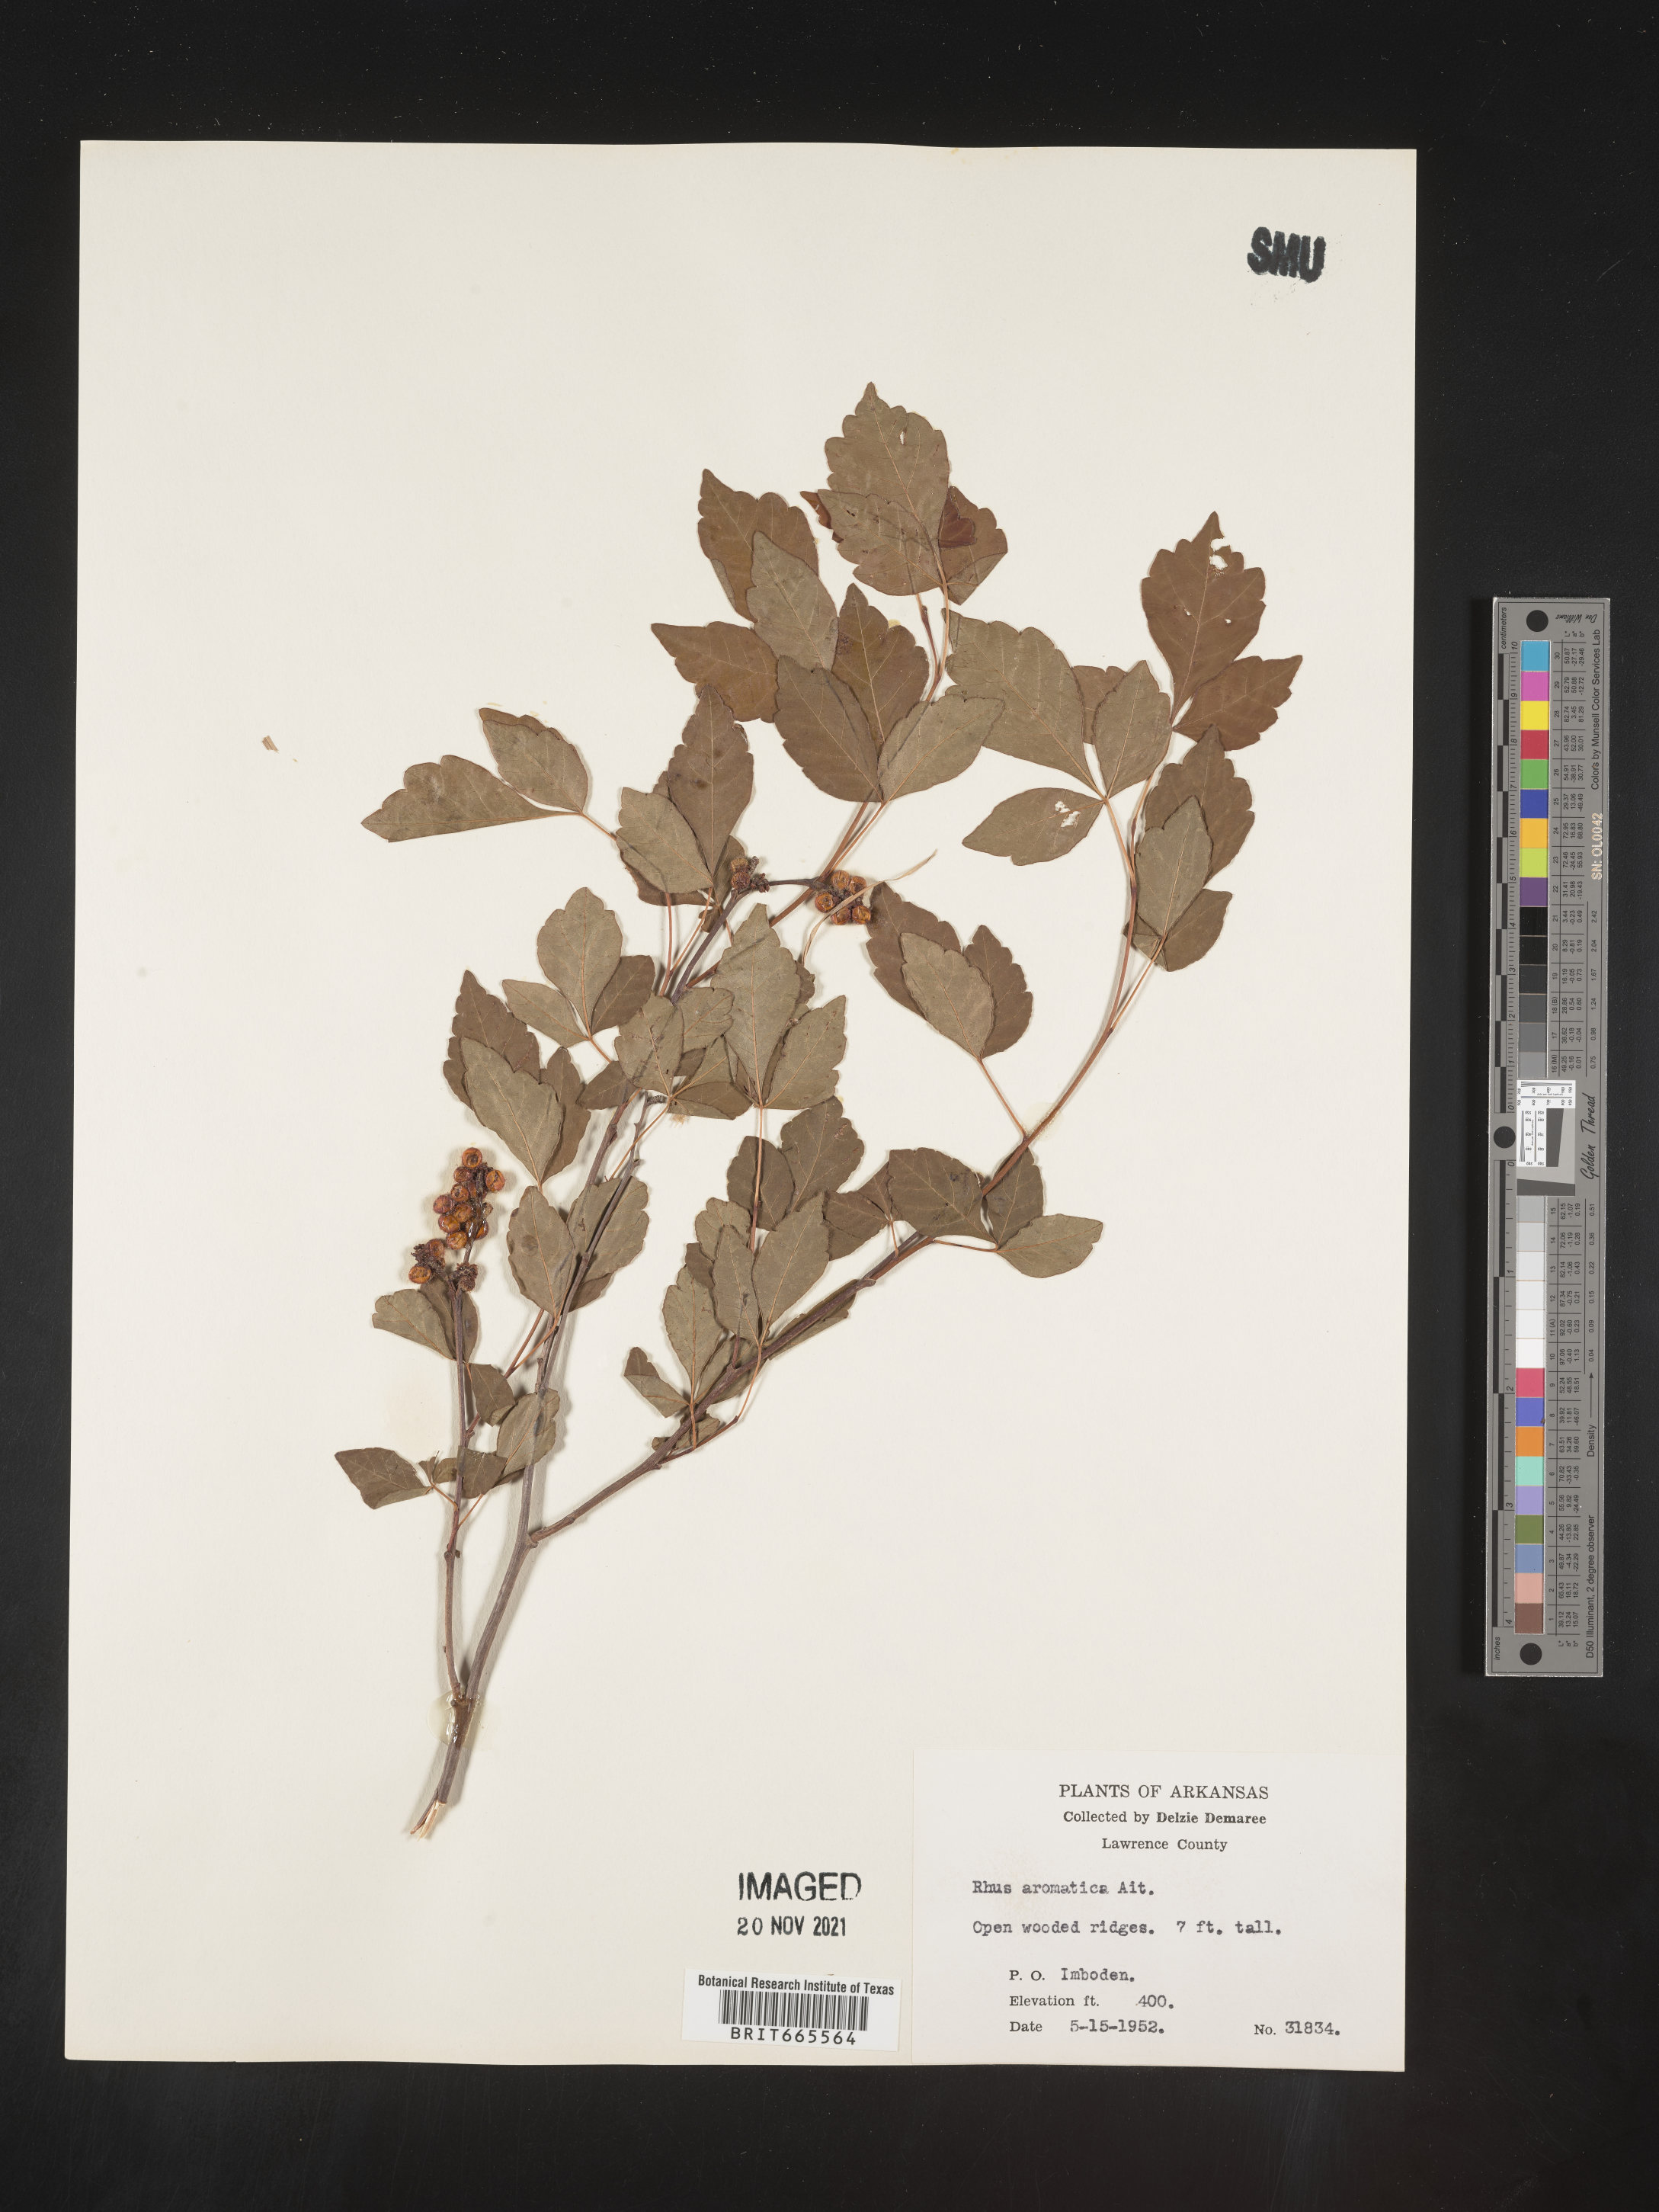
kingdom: Plantae
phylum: Tracheophyta
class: Magnoliopsida
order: Sapindales
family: Anacardiaceae
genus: Rhus
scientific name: Rhus aromatica
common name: Aromatic sumac
